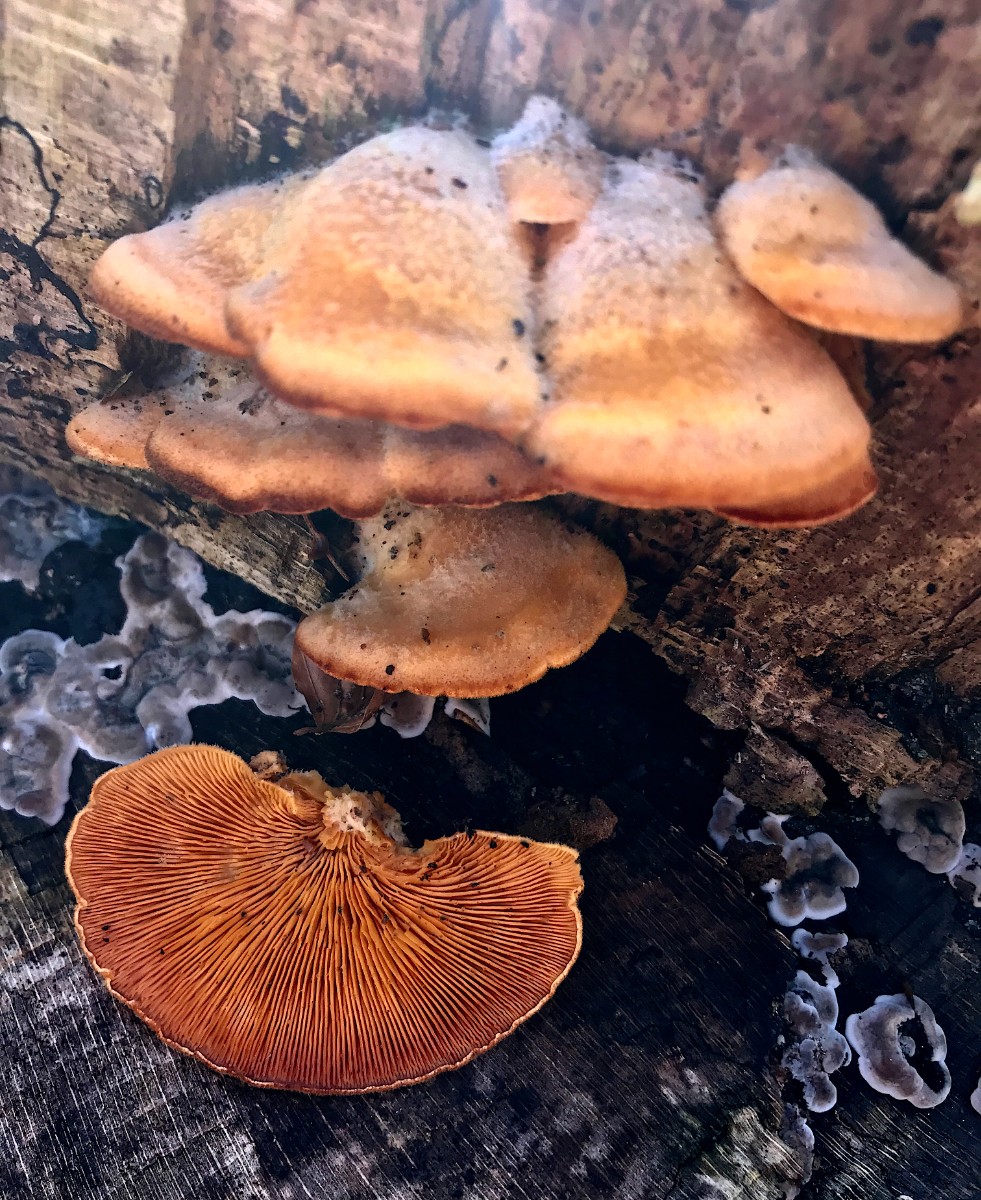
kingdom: Fungi
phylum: Basidiomycota
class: Agaricomycetes
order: Agaricales
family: Phyllotopsidaceae
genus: Phyllotopsis
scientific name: Phyllotopsis nidulans
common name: okkerblad
